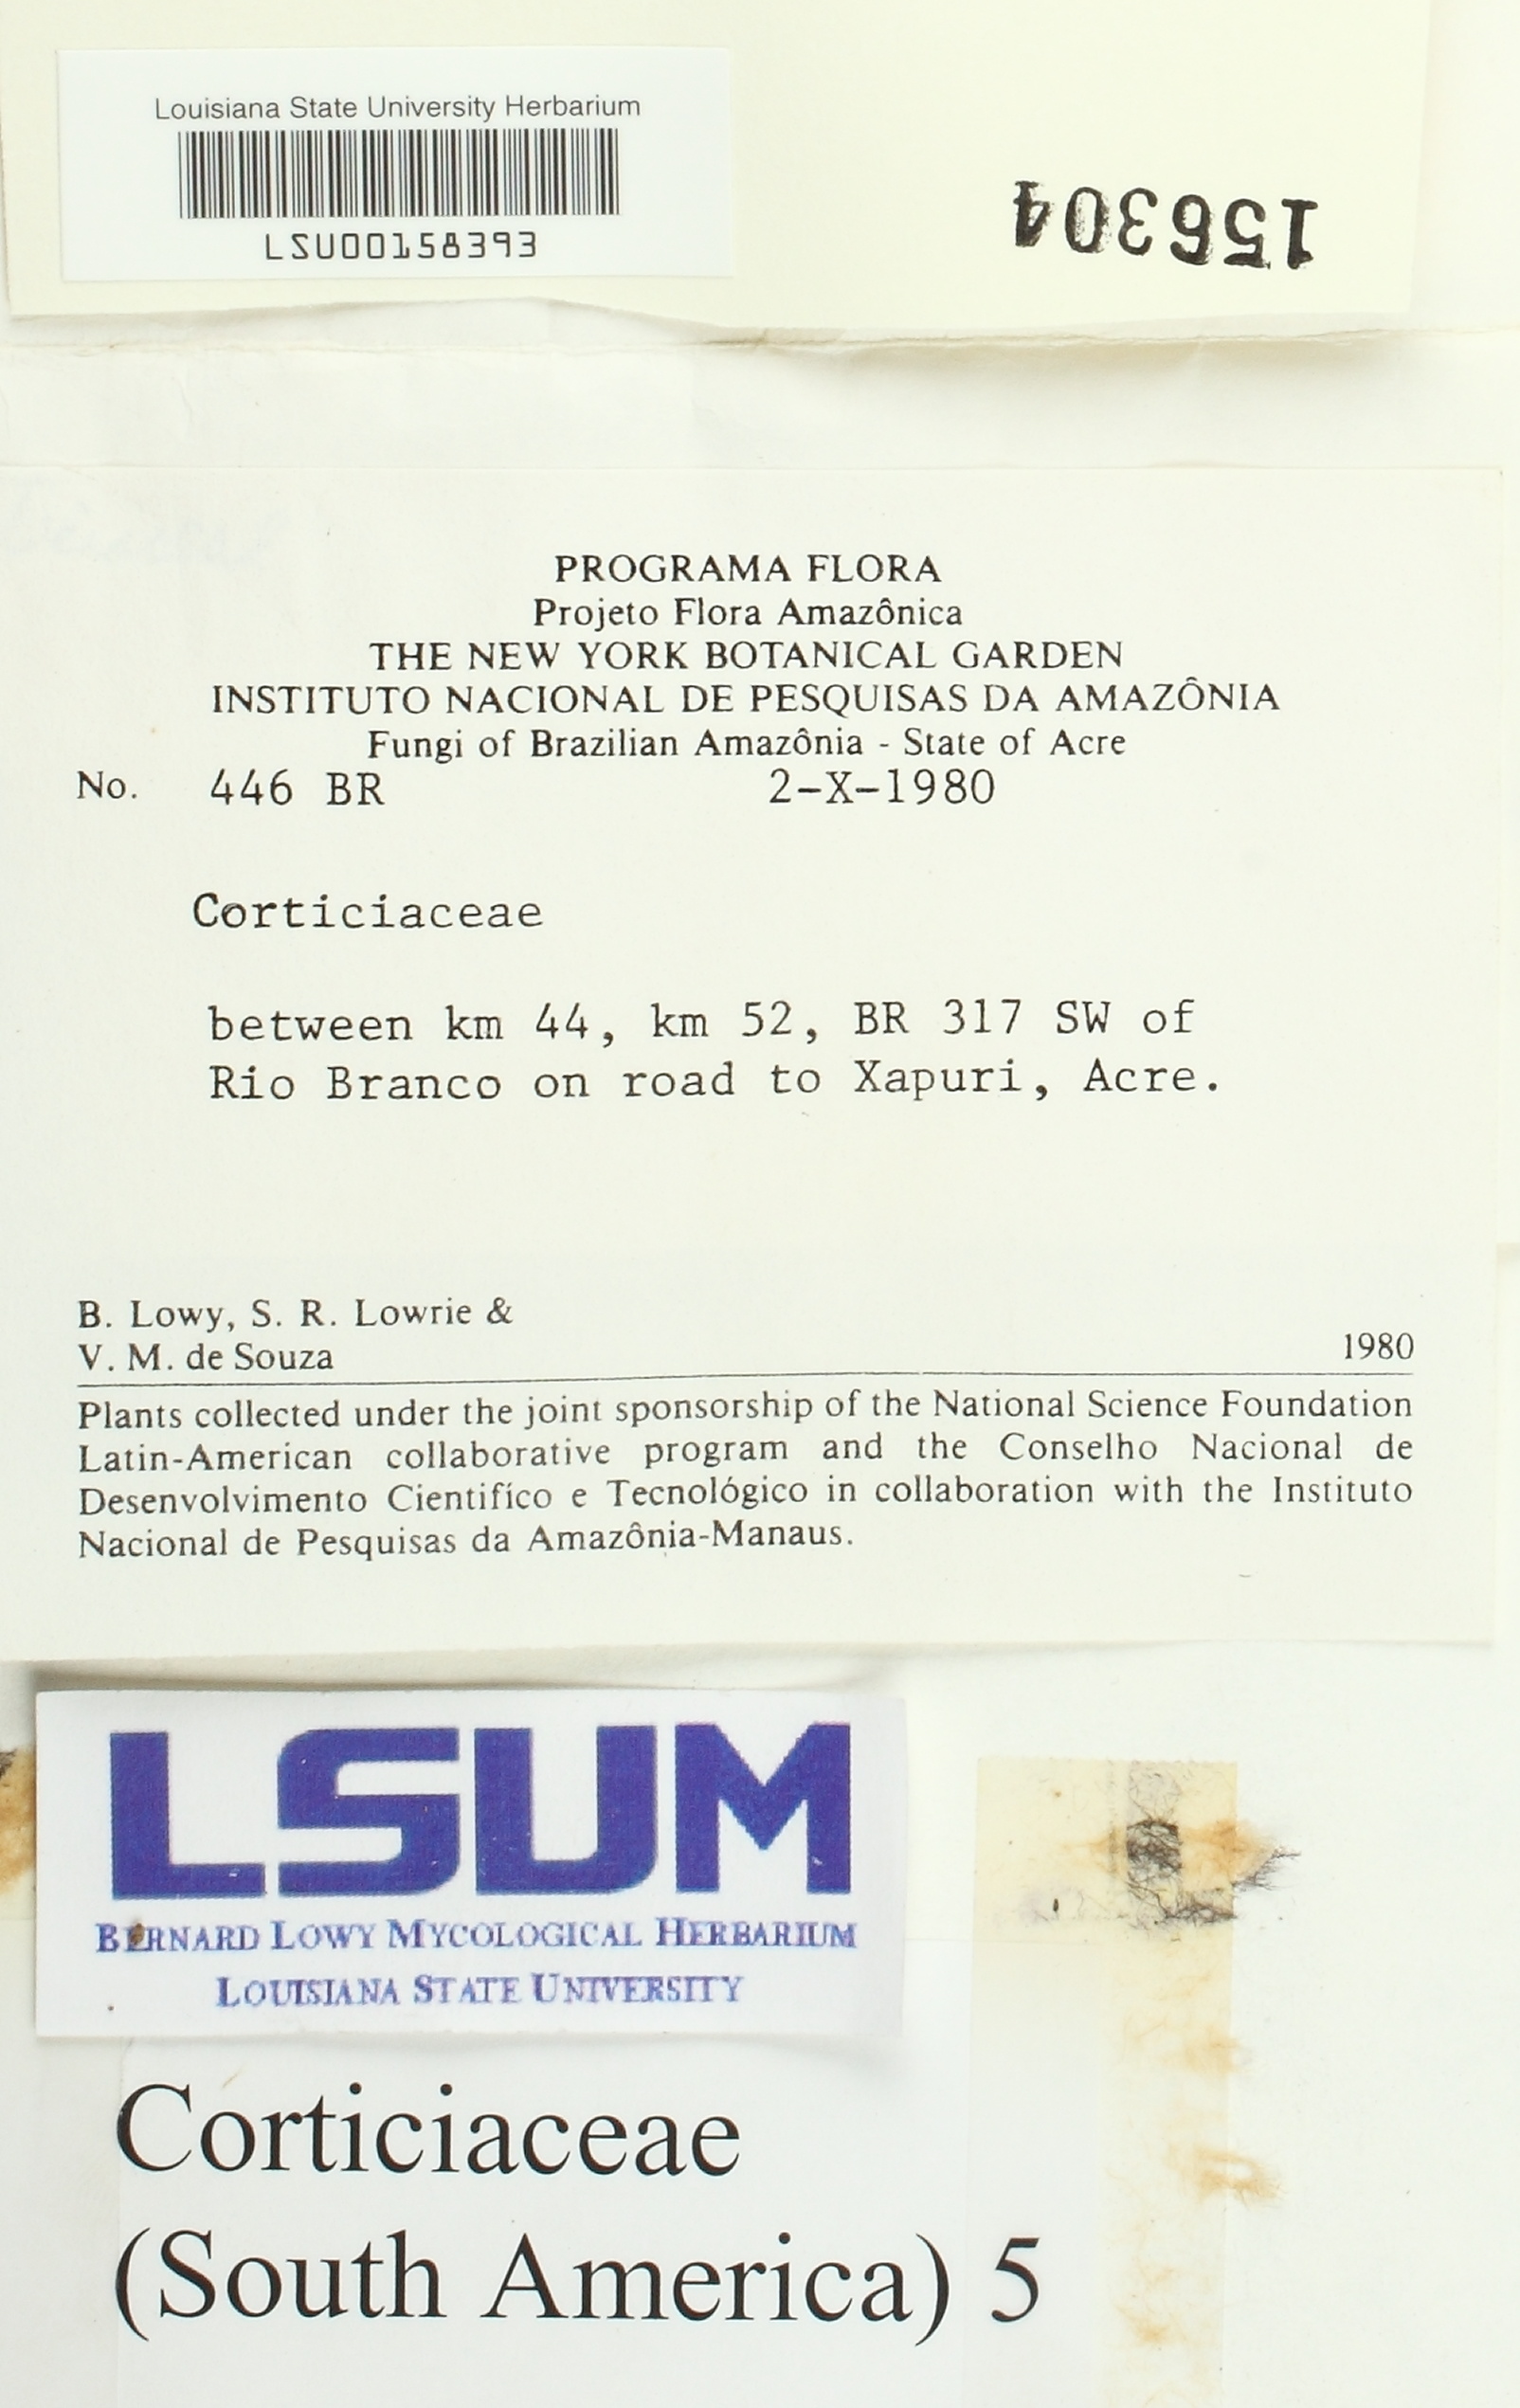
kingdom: Fungi
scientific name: Fungi
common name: Fungi
